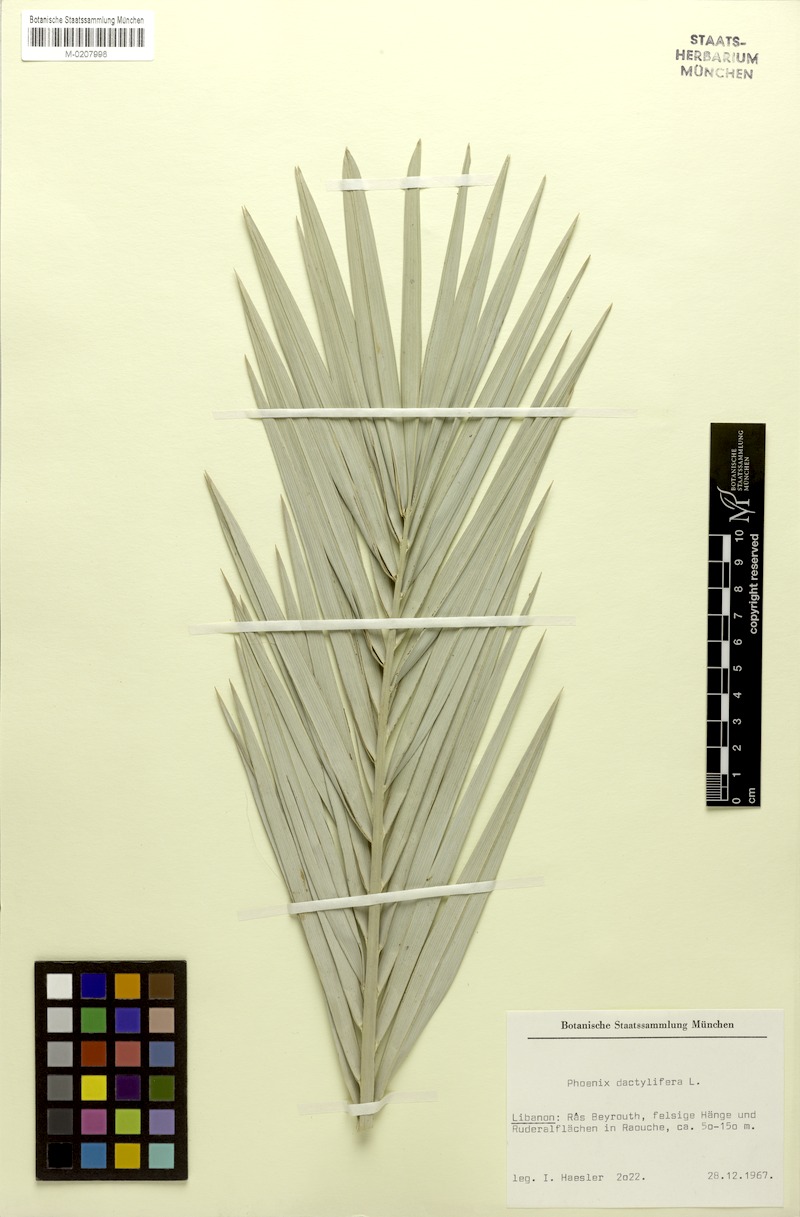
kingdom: Plantae
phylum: Tracheophyta
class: Liliopsida
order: Arecales
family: Arecaceae
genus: Phoenix
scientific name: Phoenix dactylifera
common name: Date palm
